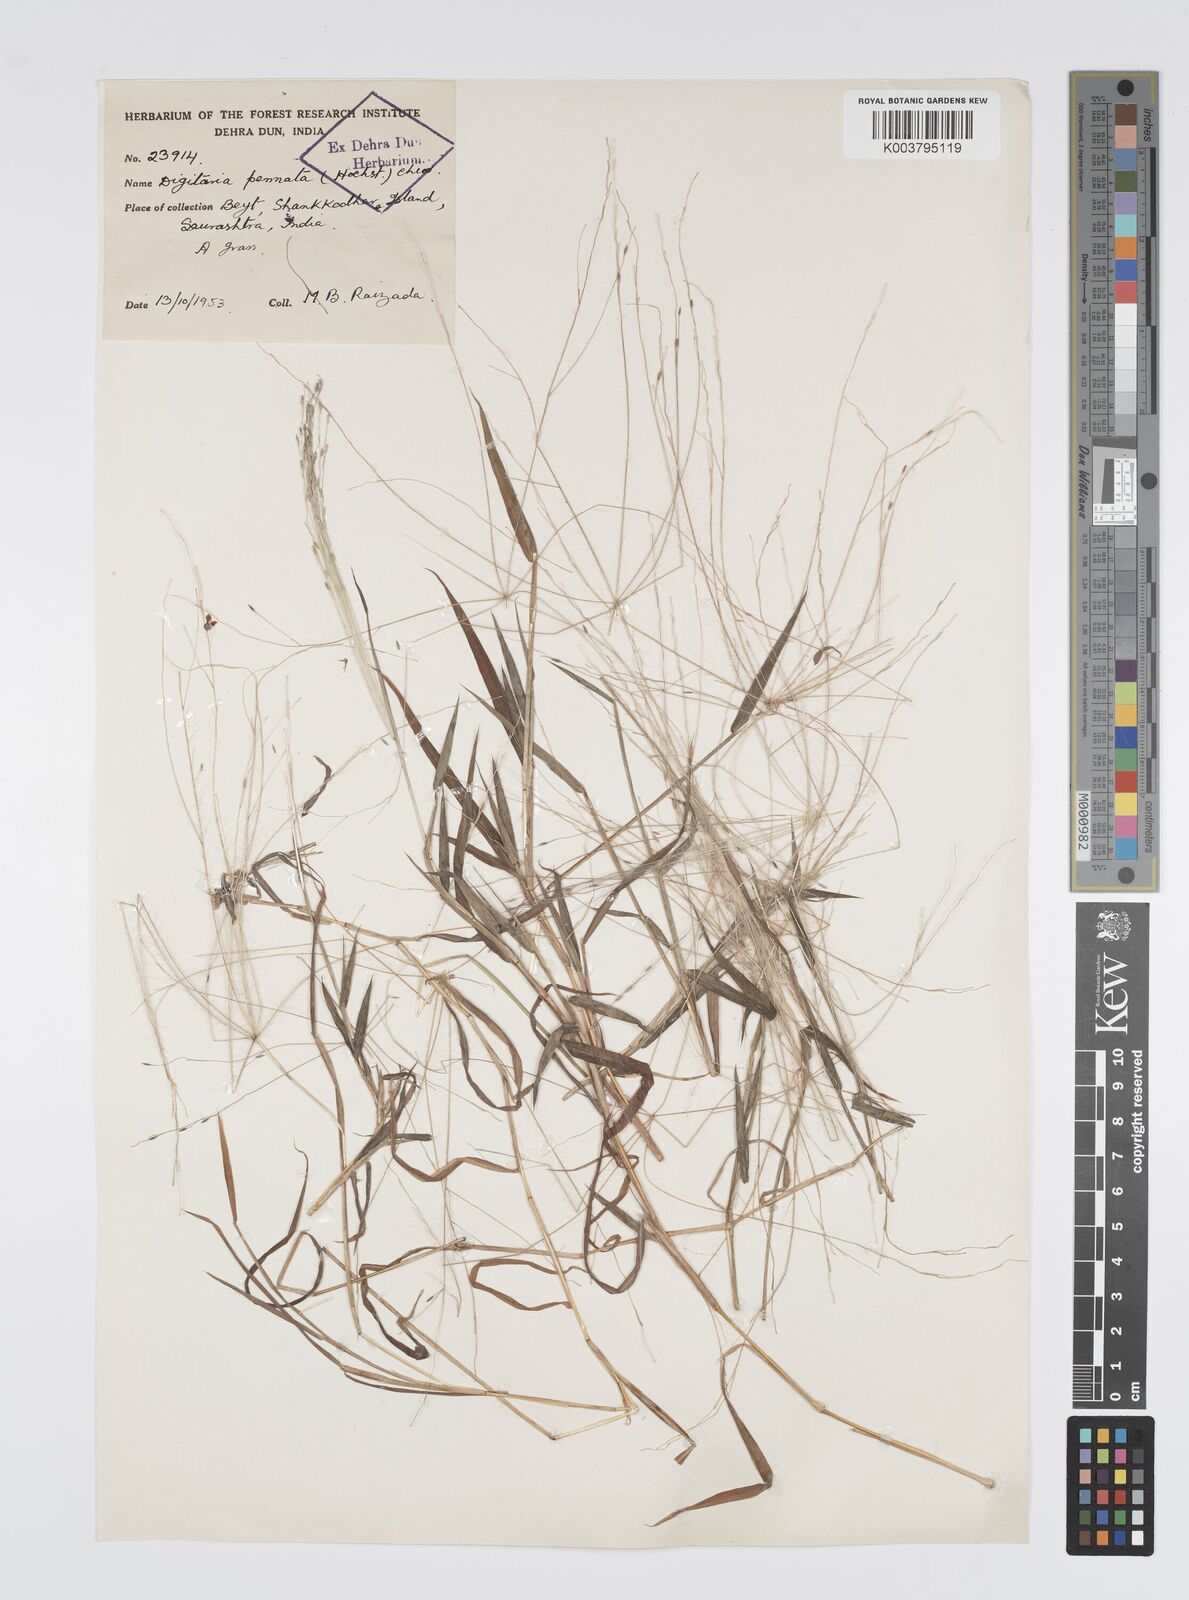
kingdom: Plantae
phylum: Tracheophyta
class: Liliopsida
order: Poales
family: Poaceae
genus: Digitaria
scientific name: Digitaria pennata
